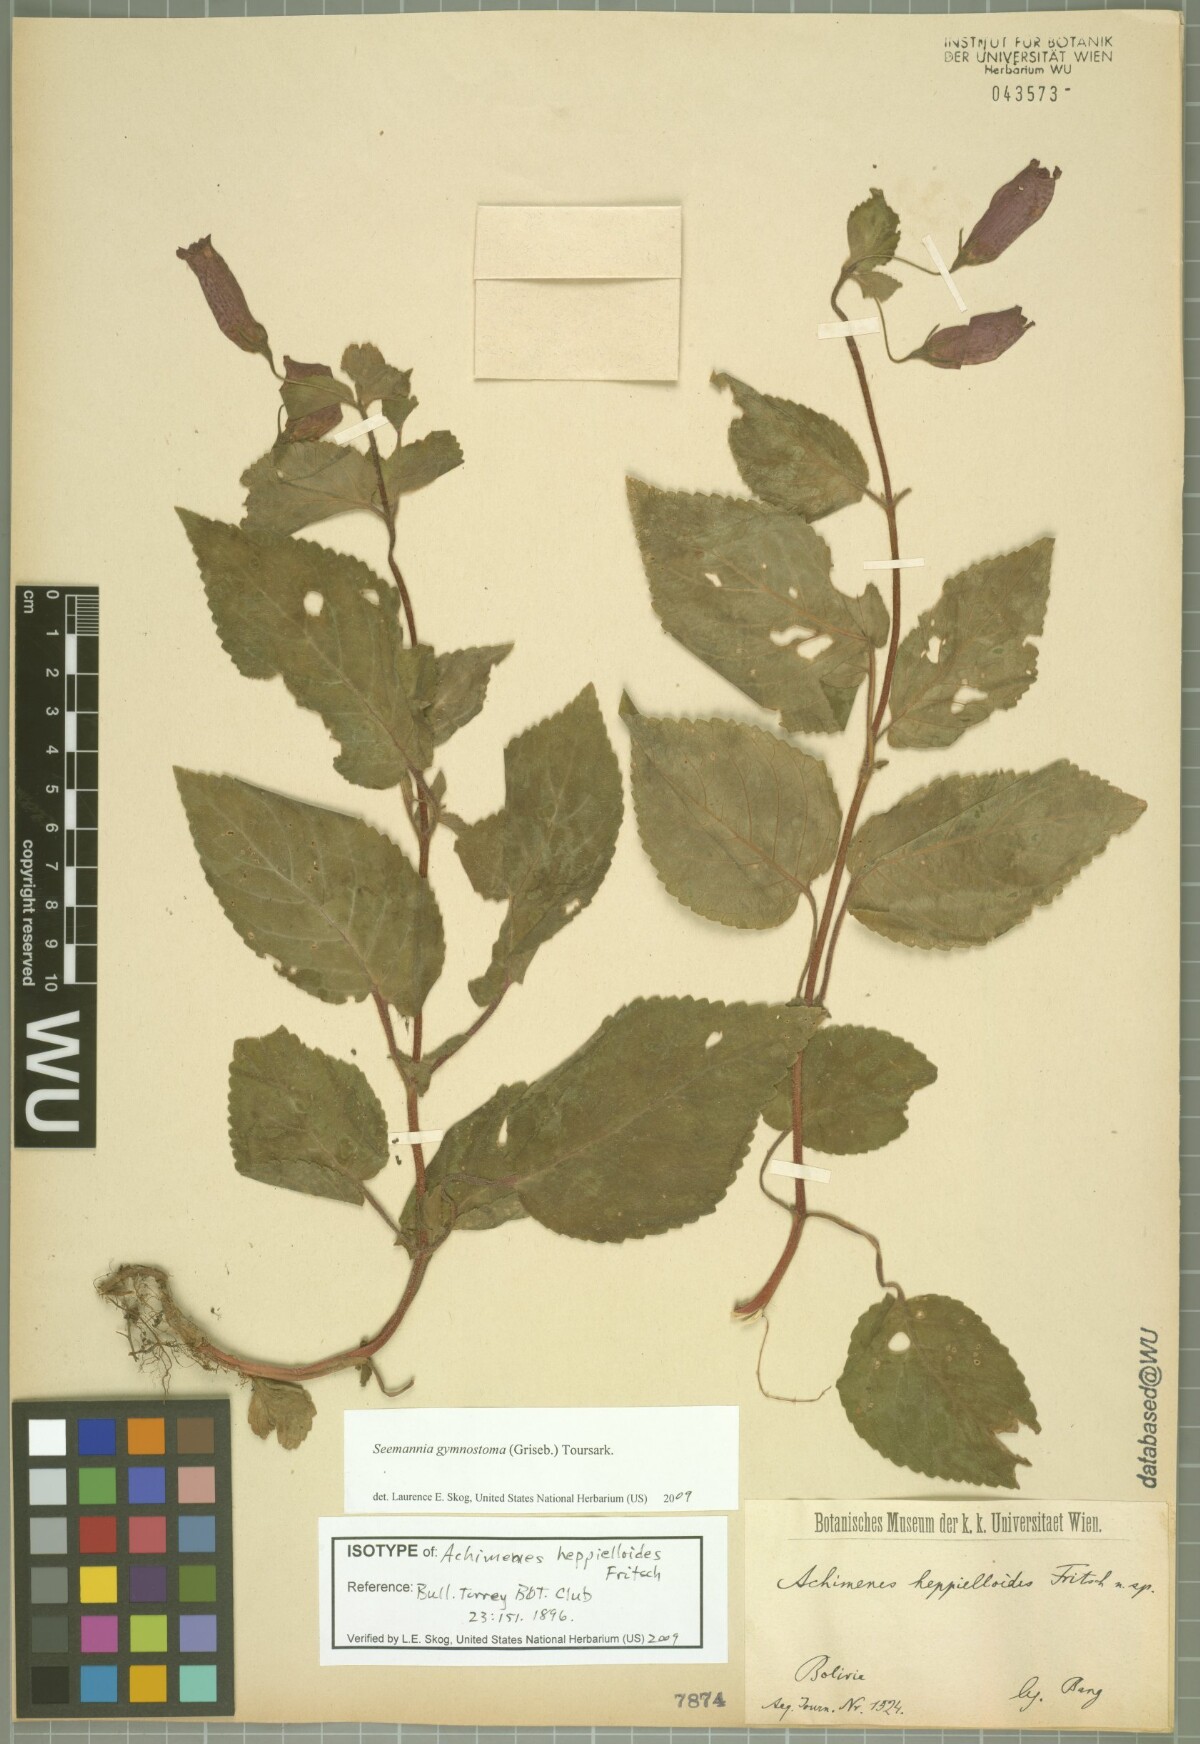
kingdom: Plantae
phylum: Tracheophyta
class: Magnoliopsida
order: Lamiales
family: Gesneriaceae
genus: Seemannia
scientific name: Seemannia gymnostoma
